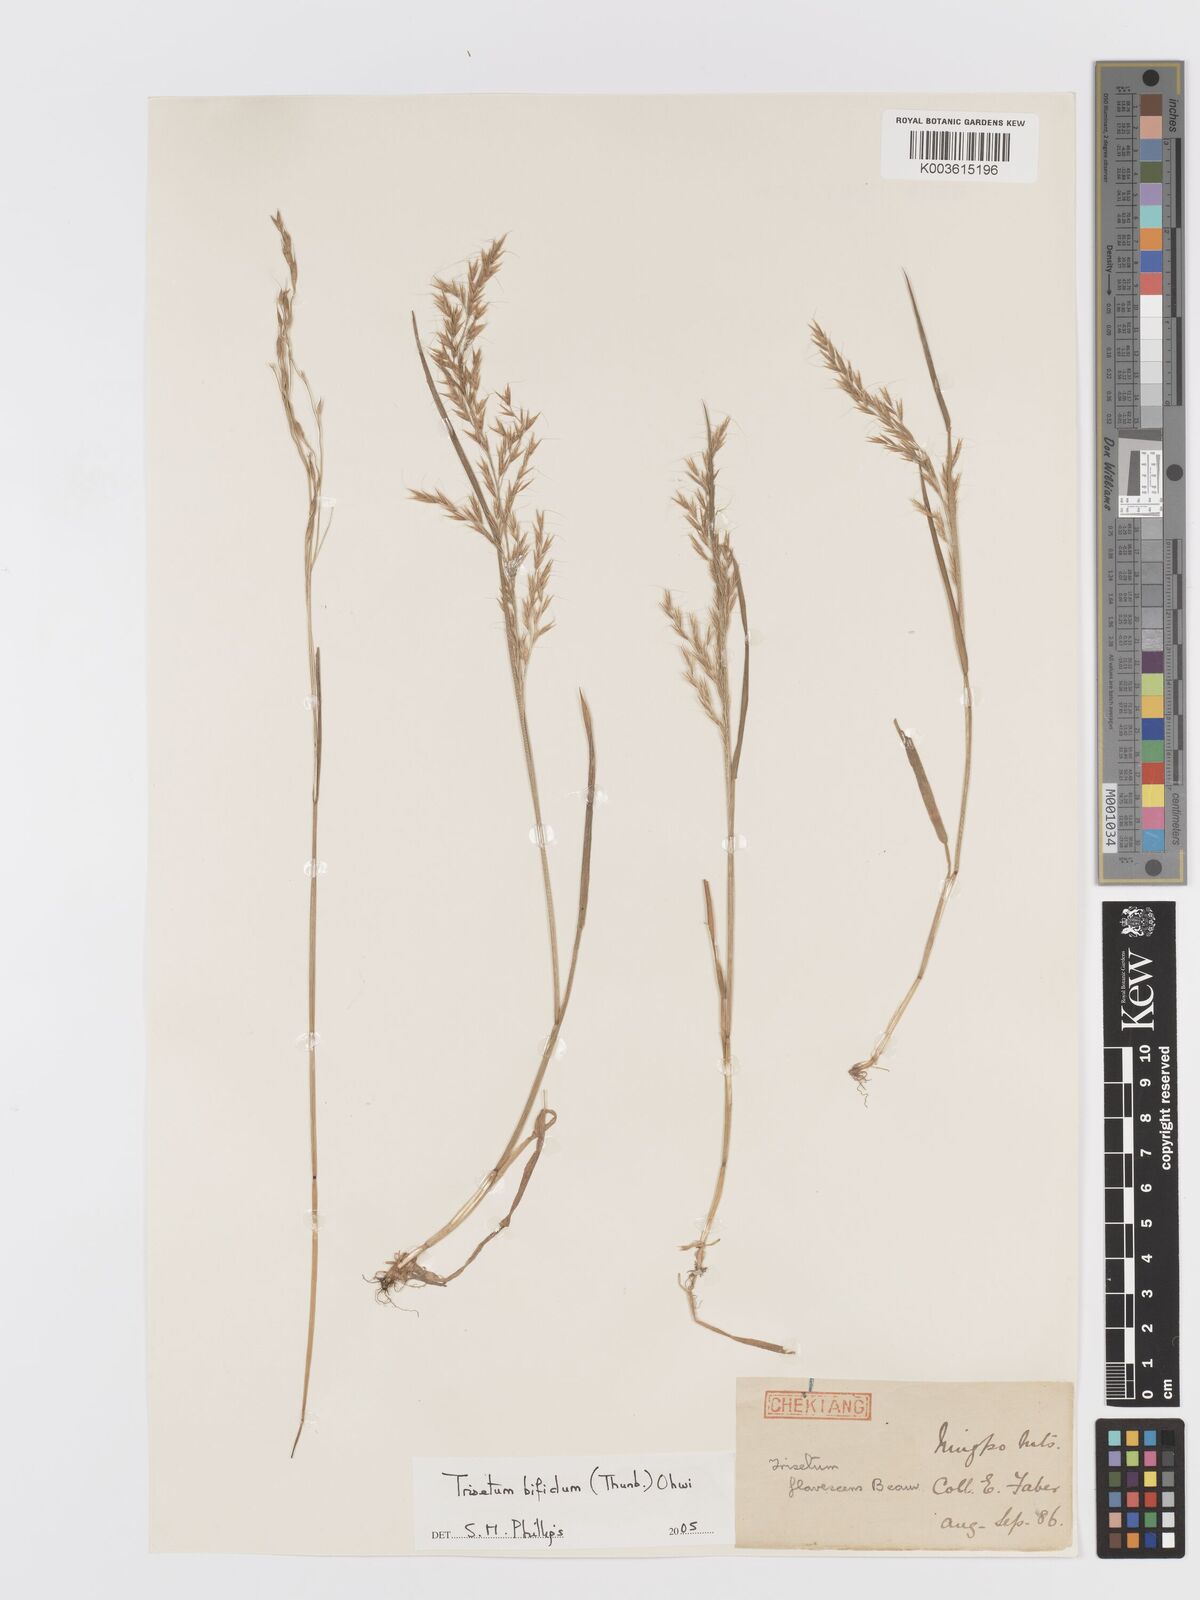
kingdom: Plantae
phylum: Tracheophyta
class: Liliopsida
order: Poales
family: Poaceae
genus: Sibirotrisetum
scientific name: Sibirotrisetum bifidum
